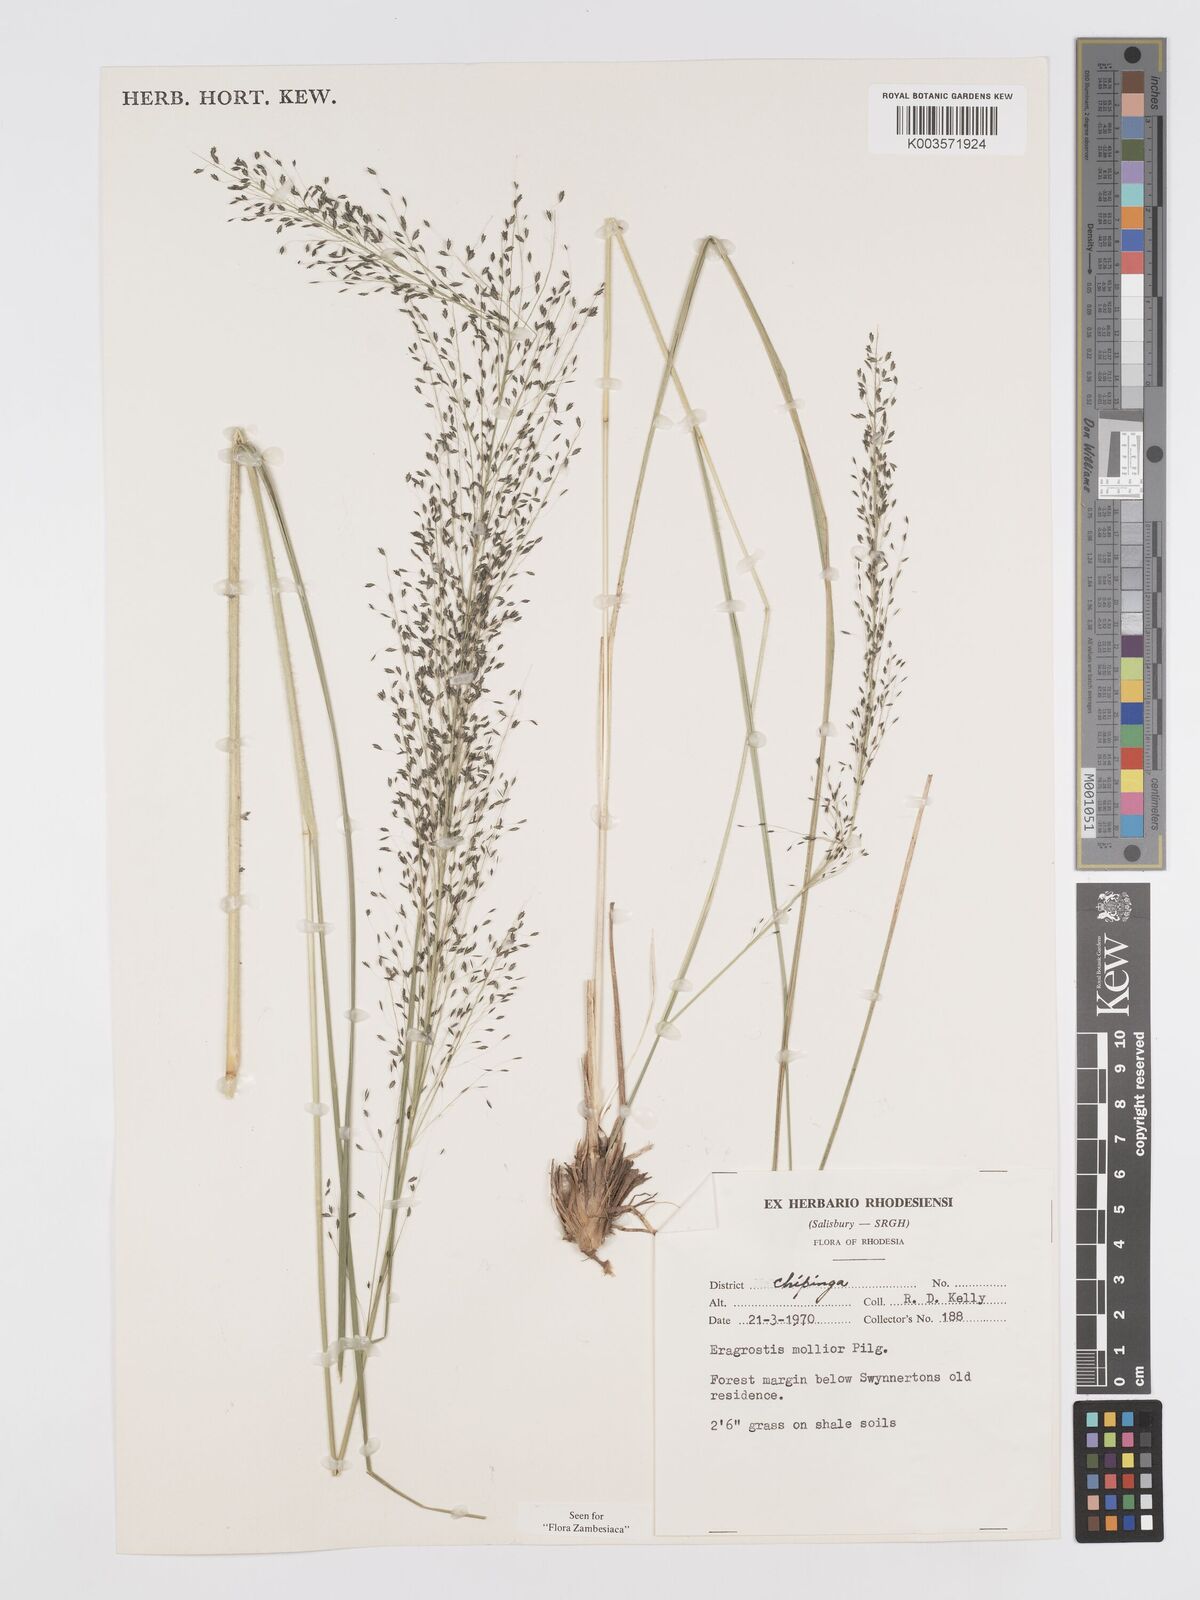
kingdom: Plantae
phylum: Tracheophyta
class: Liliopsida
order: Poales
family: Poaceae
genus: Eragrostis
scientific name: Eragrostis mollior
